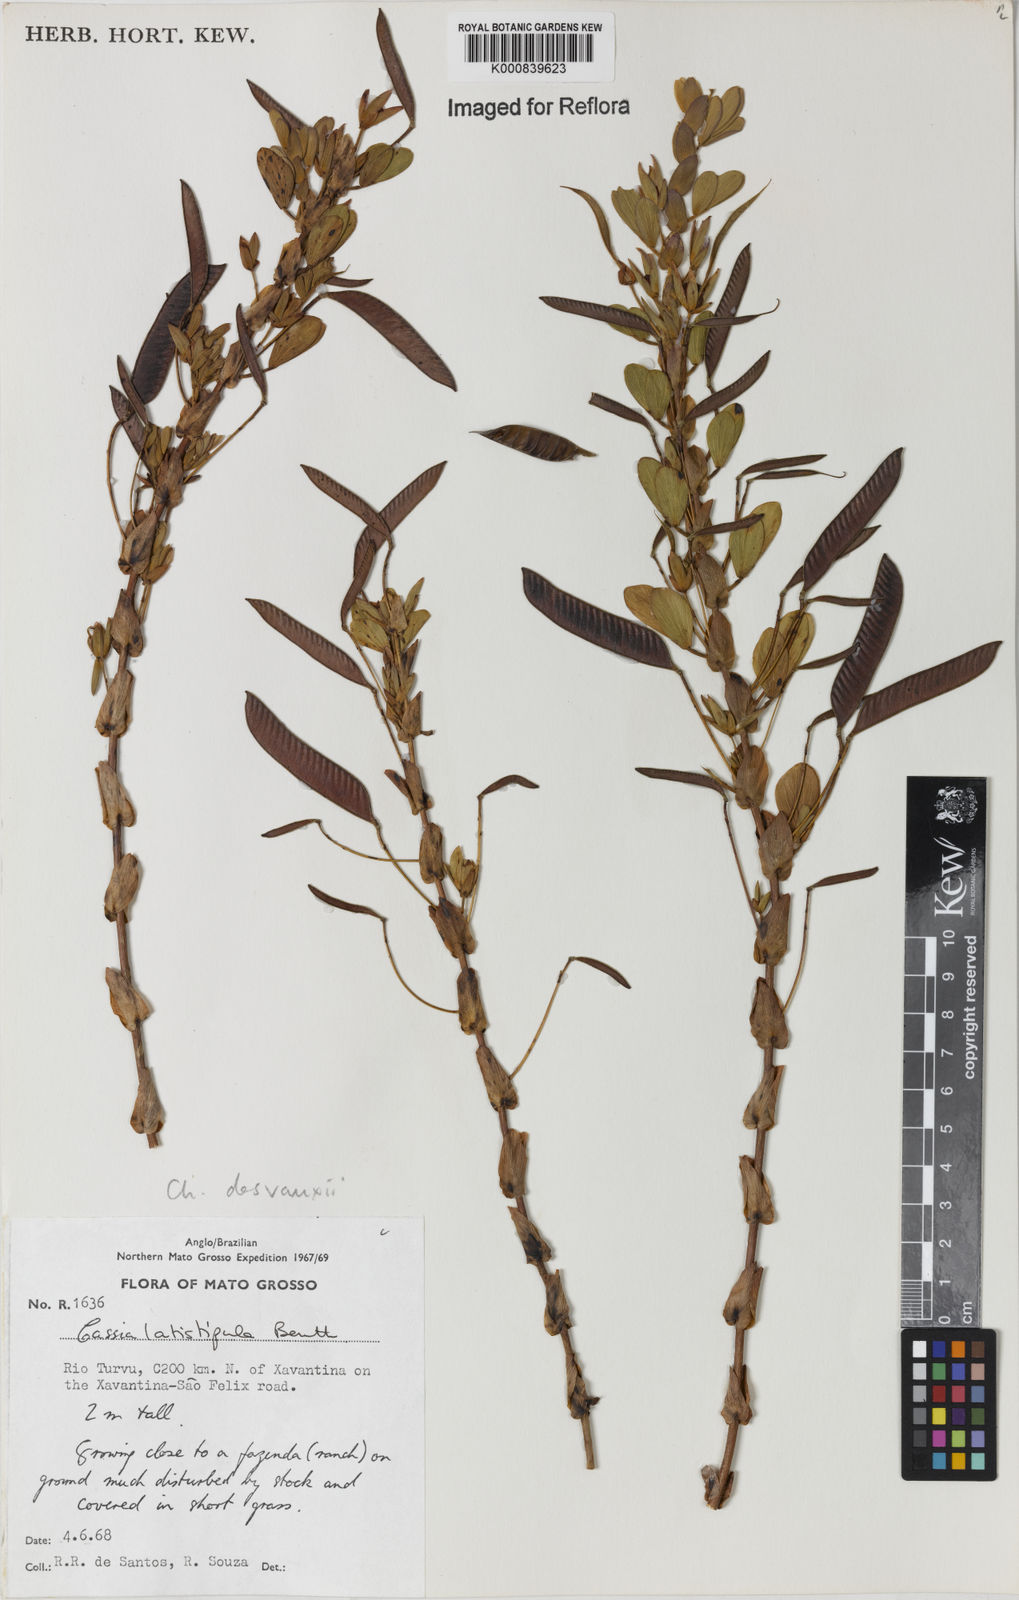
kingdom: Plantae
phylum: Tracheophyta
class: Magnoliopsida
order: Fabales
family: Fabaceae
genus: Chamaecrista
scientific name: Chamaecrista desvauxii
